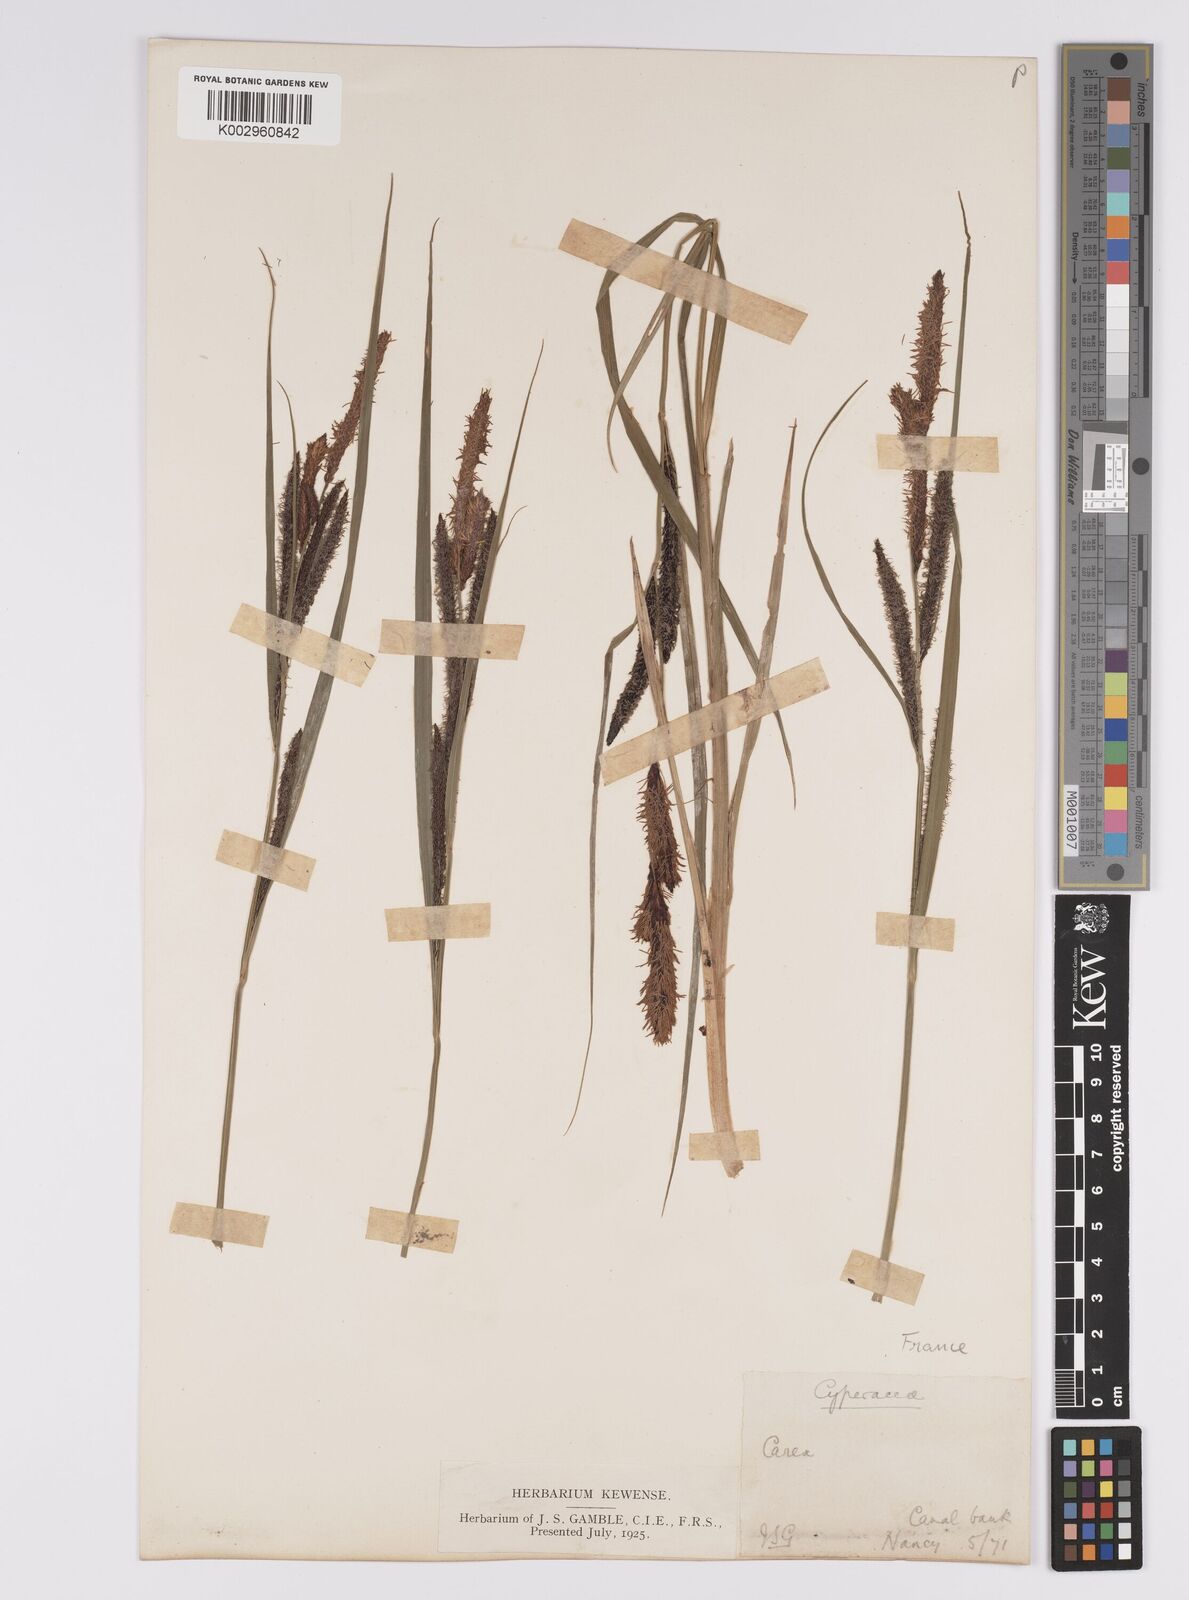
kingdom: Plantae
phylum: Tracheophyta
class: Liliopsida
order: Poales
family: Cyperaceae
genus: Carex
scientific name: Carex acutiformis
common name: Lesser pond-sedge
